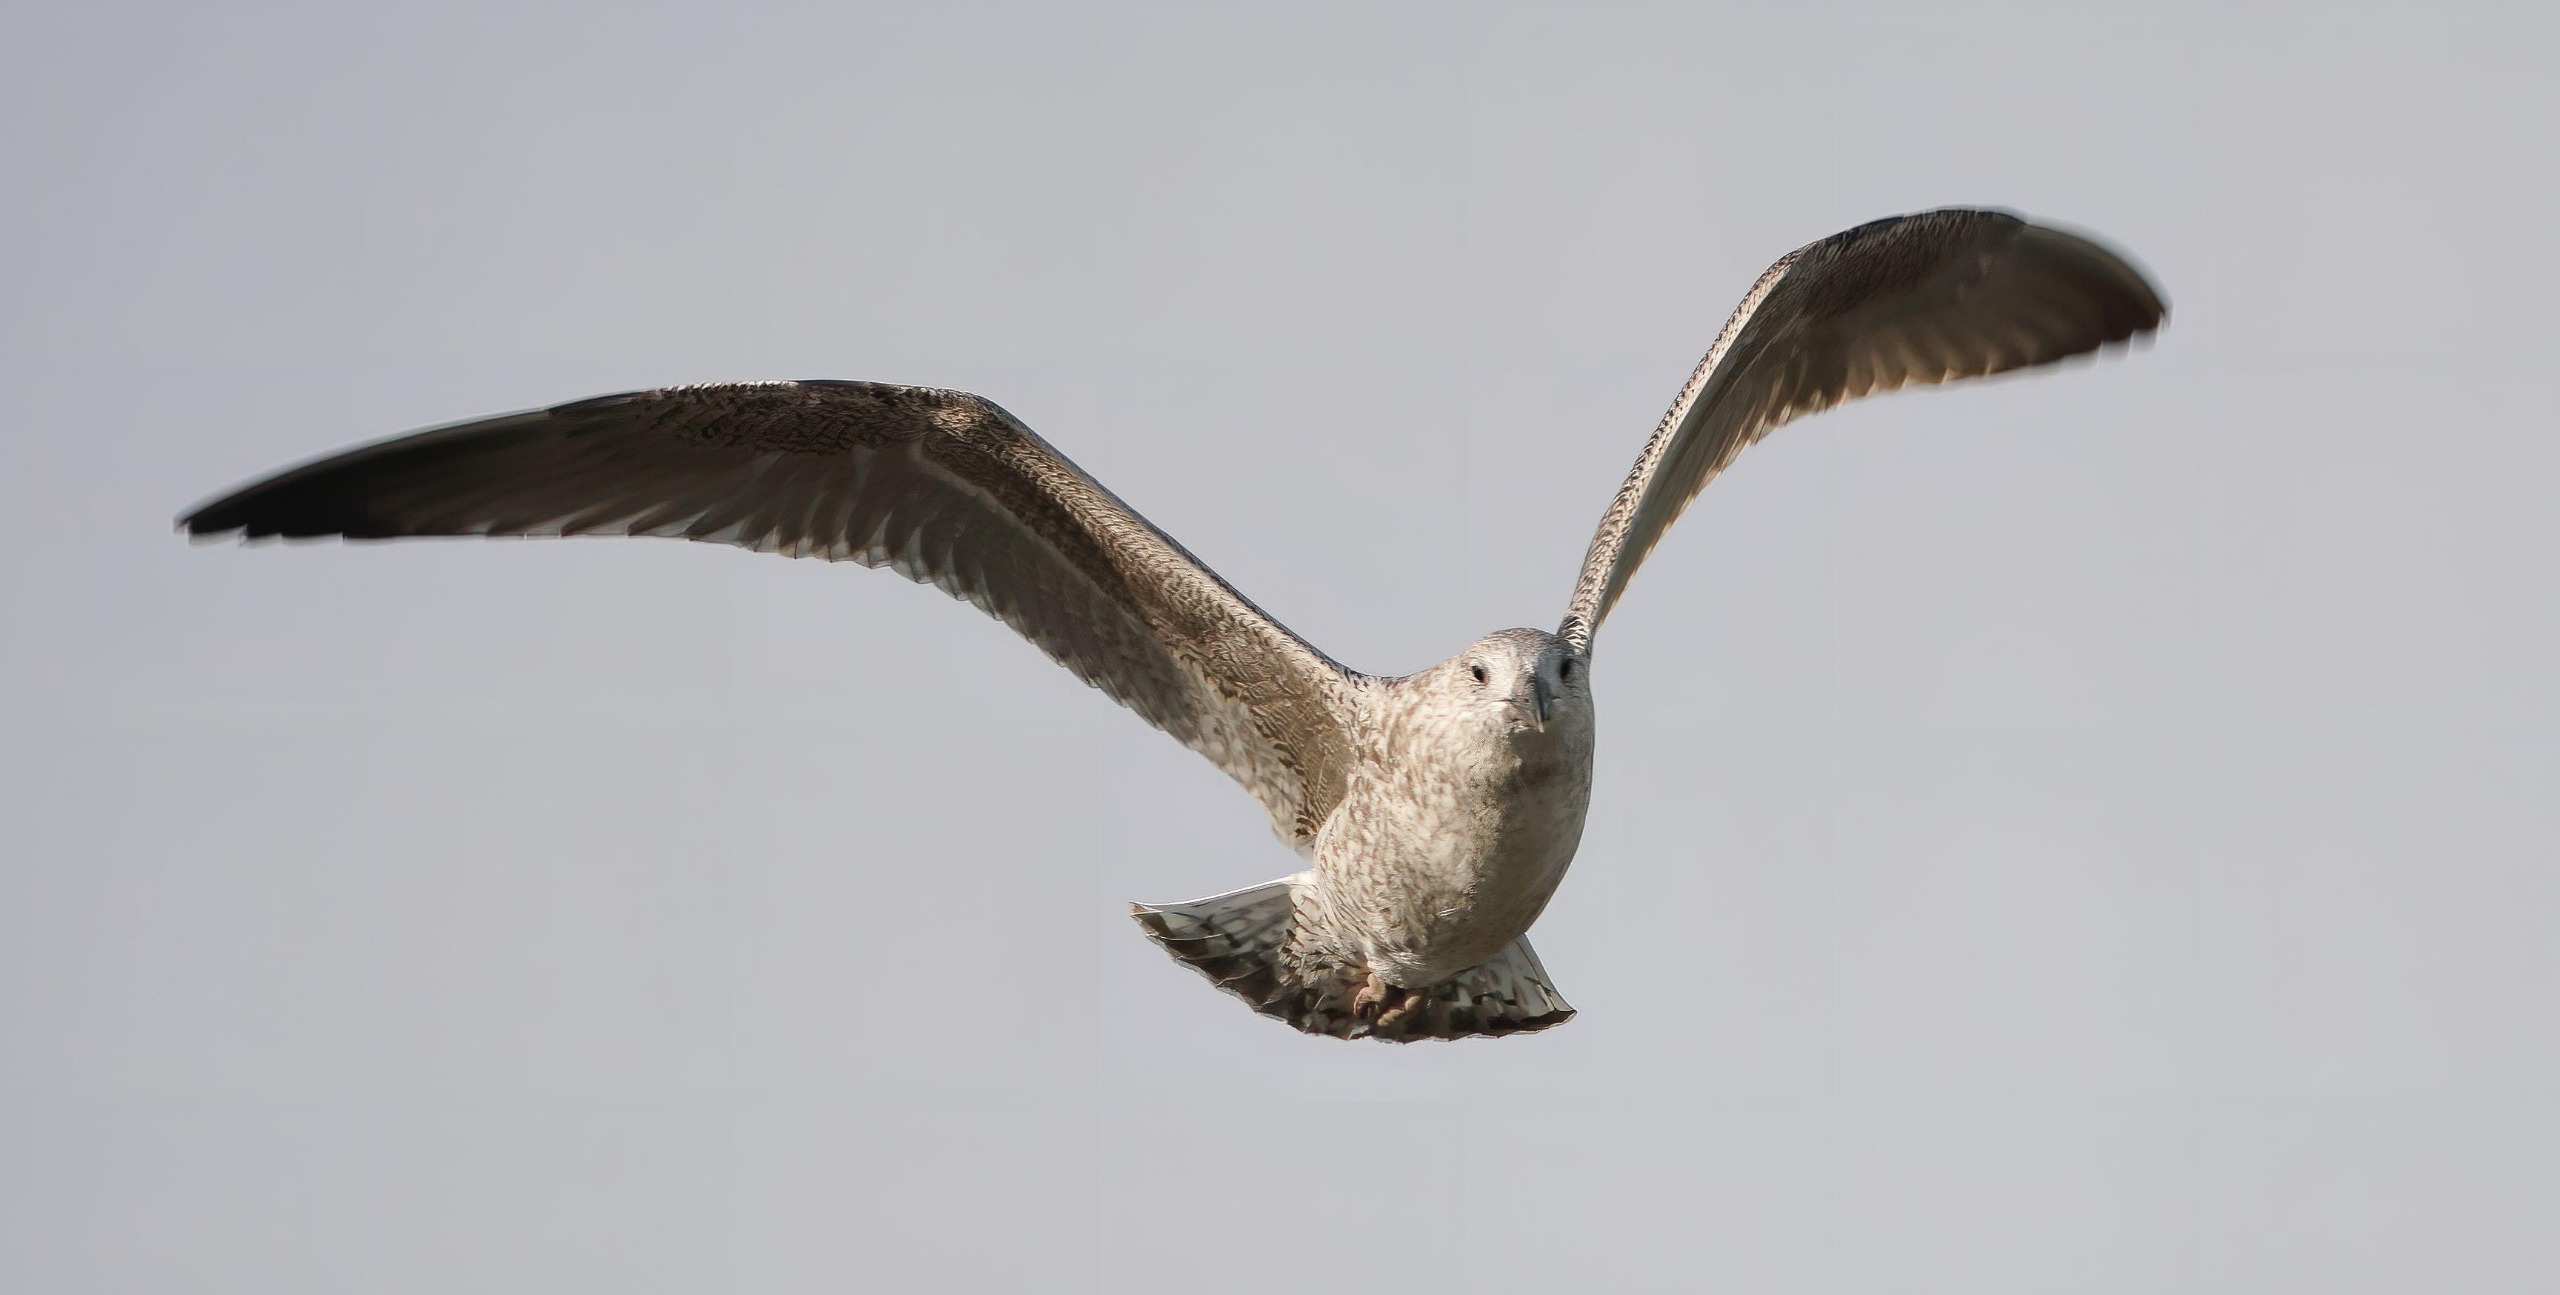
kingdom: Animalia
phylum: Chordata
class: Aves
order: Charadriiformes
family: Laridae
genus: Larus
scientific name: Larus argentatus
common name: Sølvmåge
